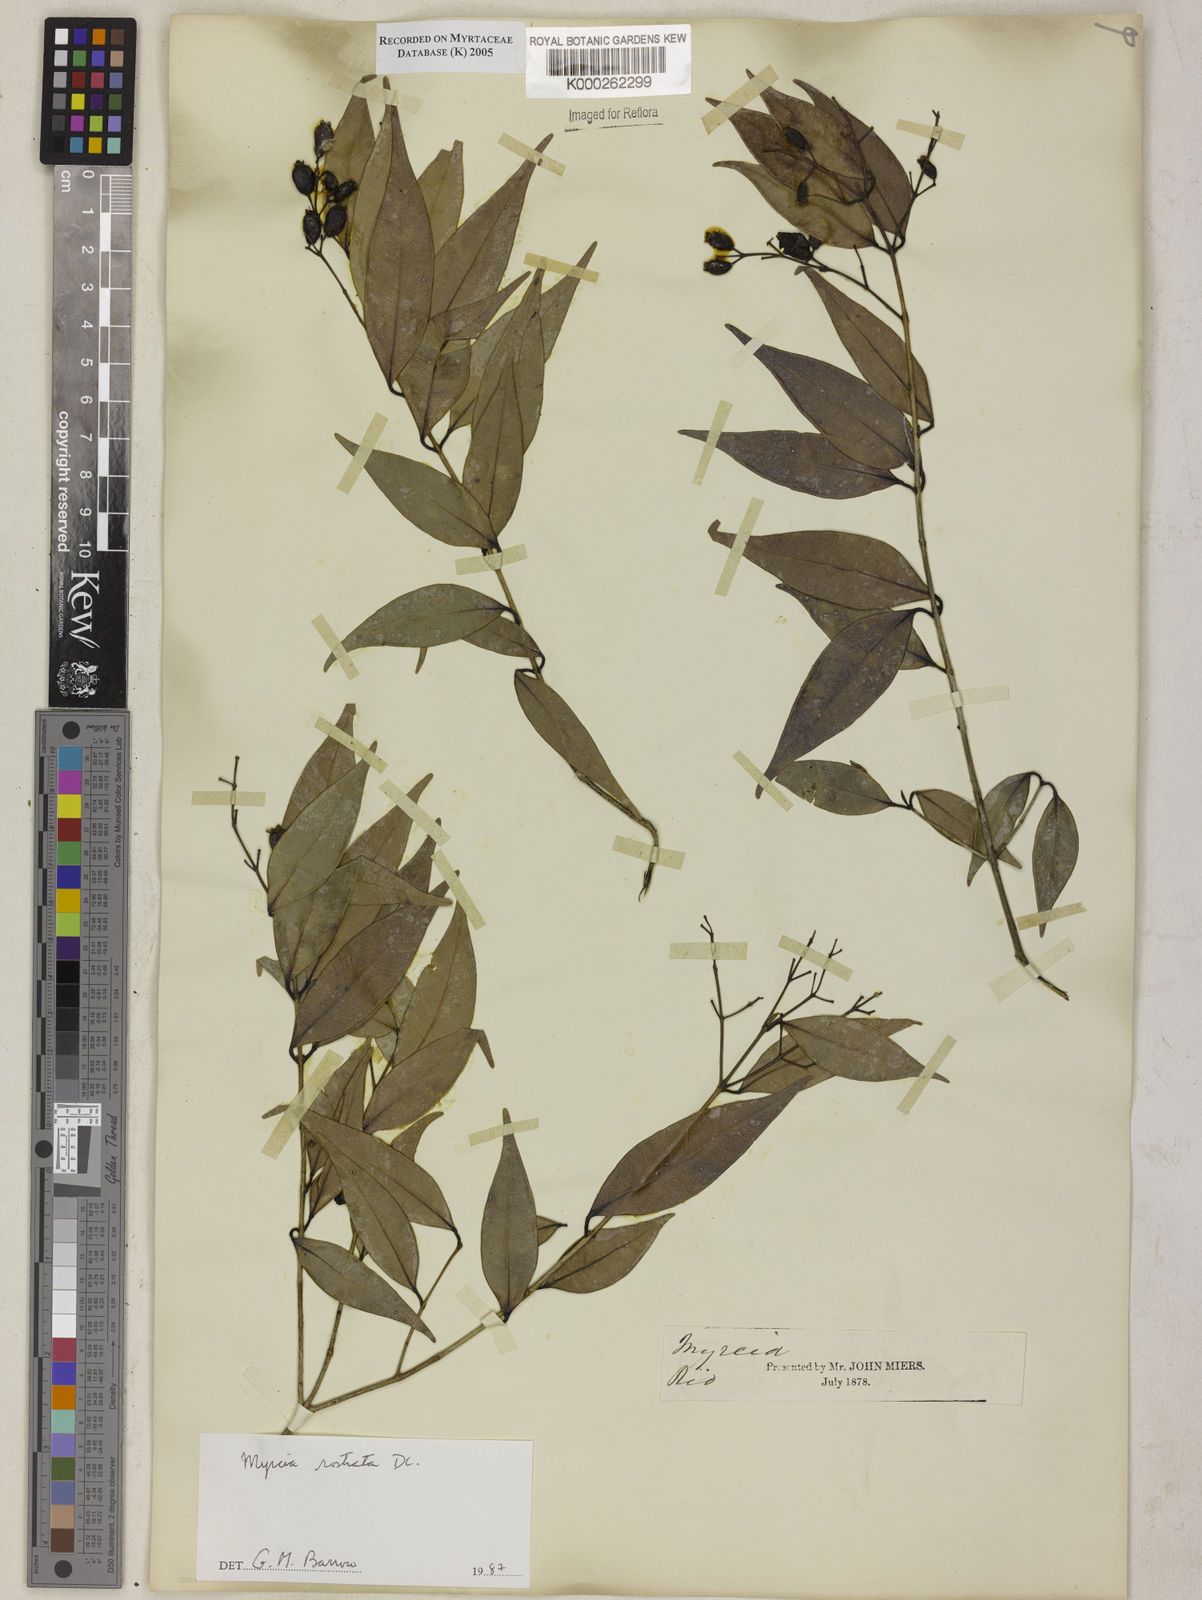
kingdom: Plantae
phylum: Tracheophyta
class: Magnoliopsida
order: Myrtales
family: Myrtaceae
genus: Myrcia
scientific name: Myrcia splendens
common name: Surinam cherry
